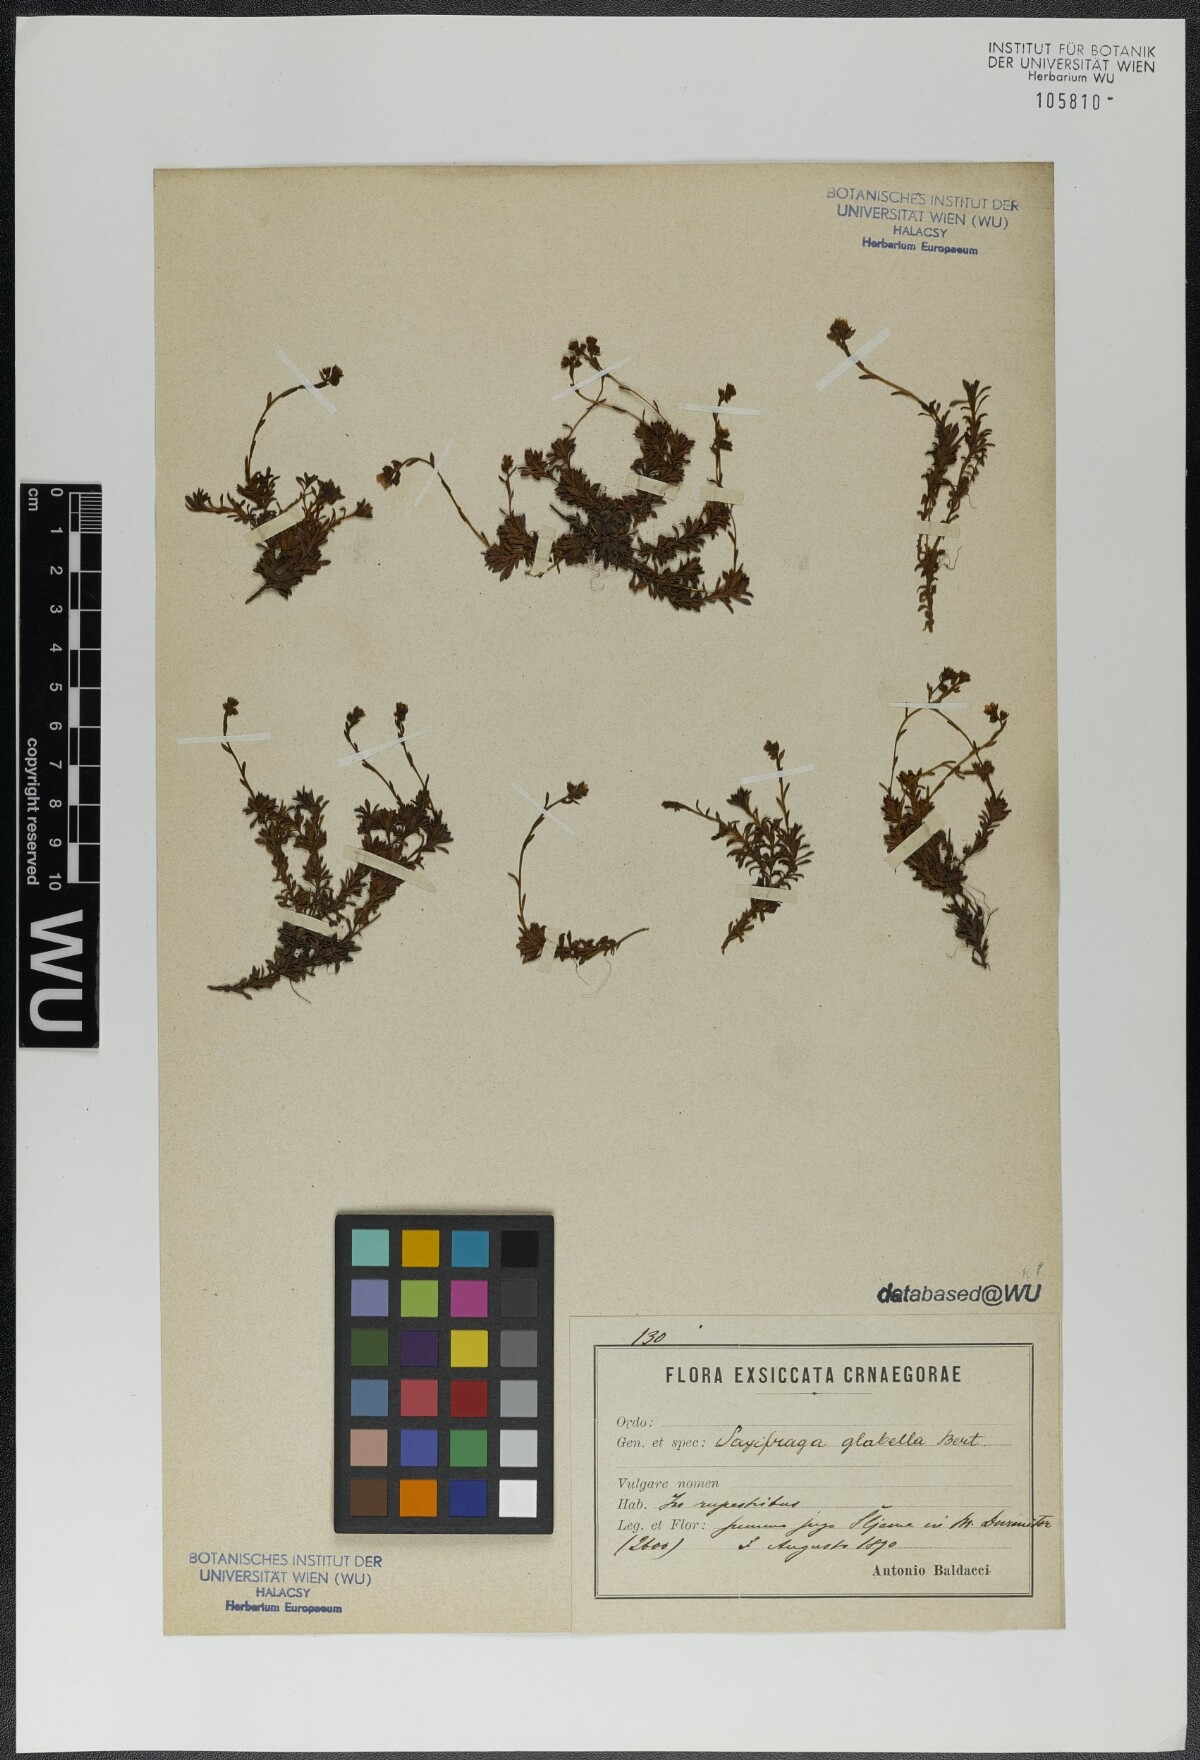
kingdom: Plantae
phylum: Tracheophyta
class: Magnoliopsida
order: Saxifragales
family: Saxifragaceae
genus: Saxifraga
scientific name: Saxifraga glabella
